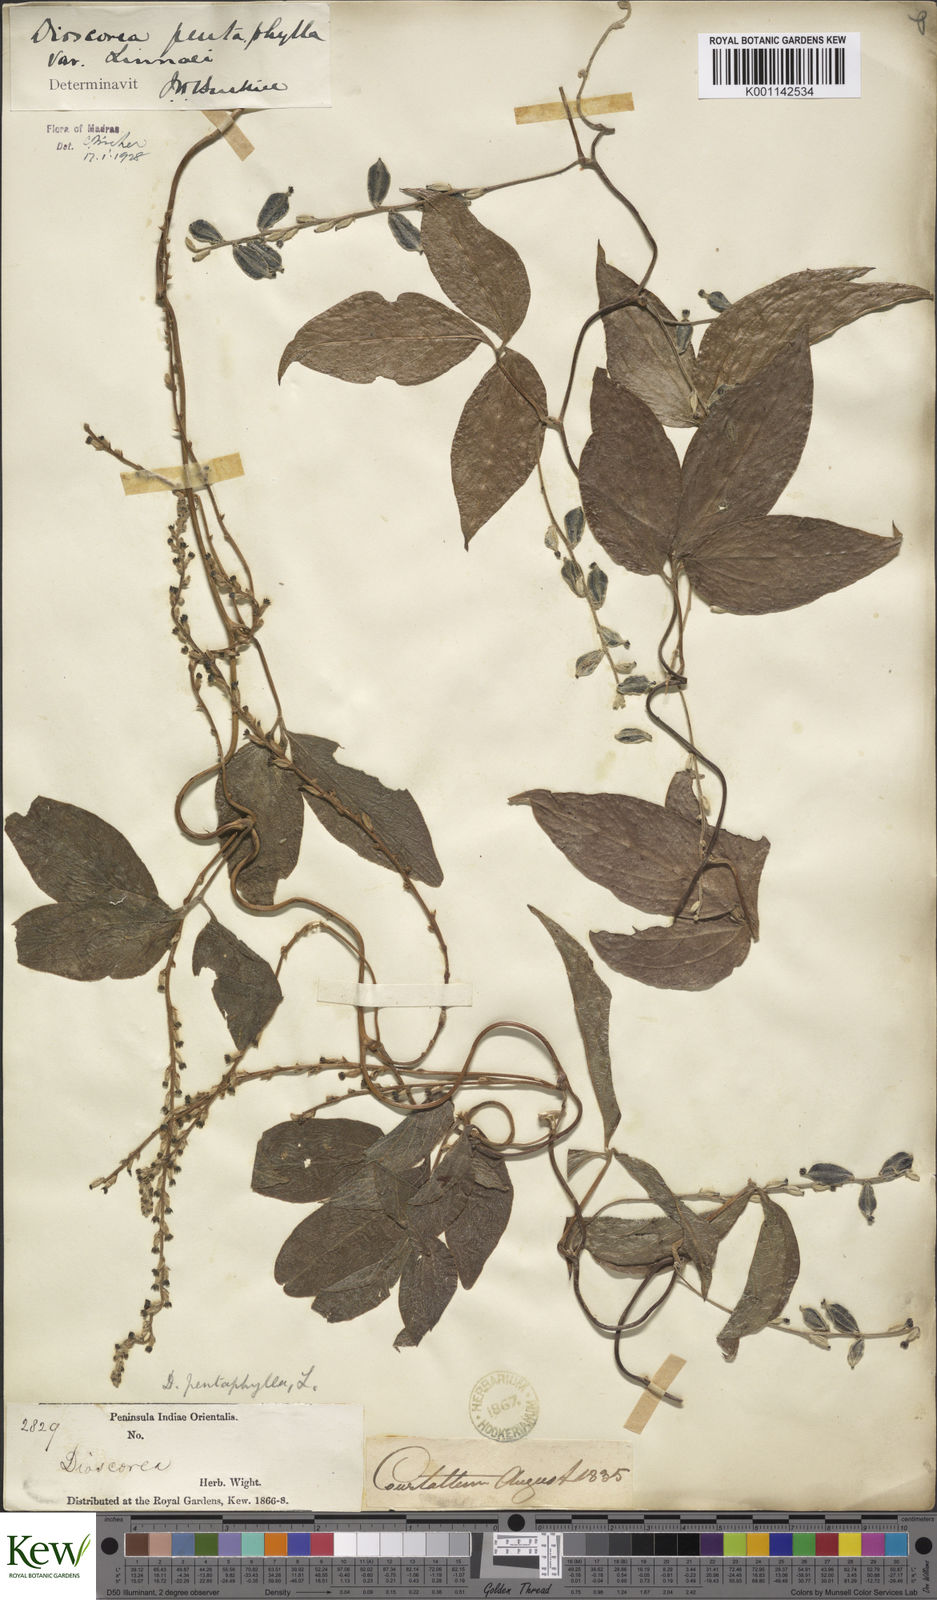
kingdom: Plantae
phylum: Tracheophyta
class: Liliopsida
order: Dioscoreales
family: Dioscoreaceae
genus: Dioscorea
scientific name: Dioscorea pentaphylla
